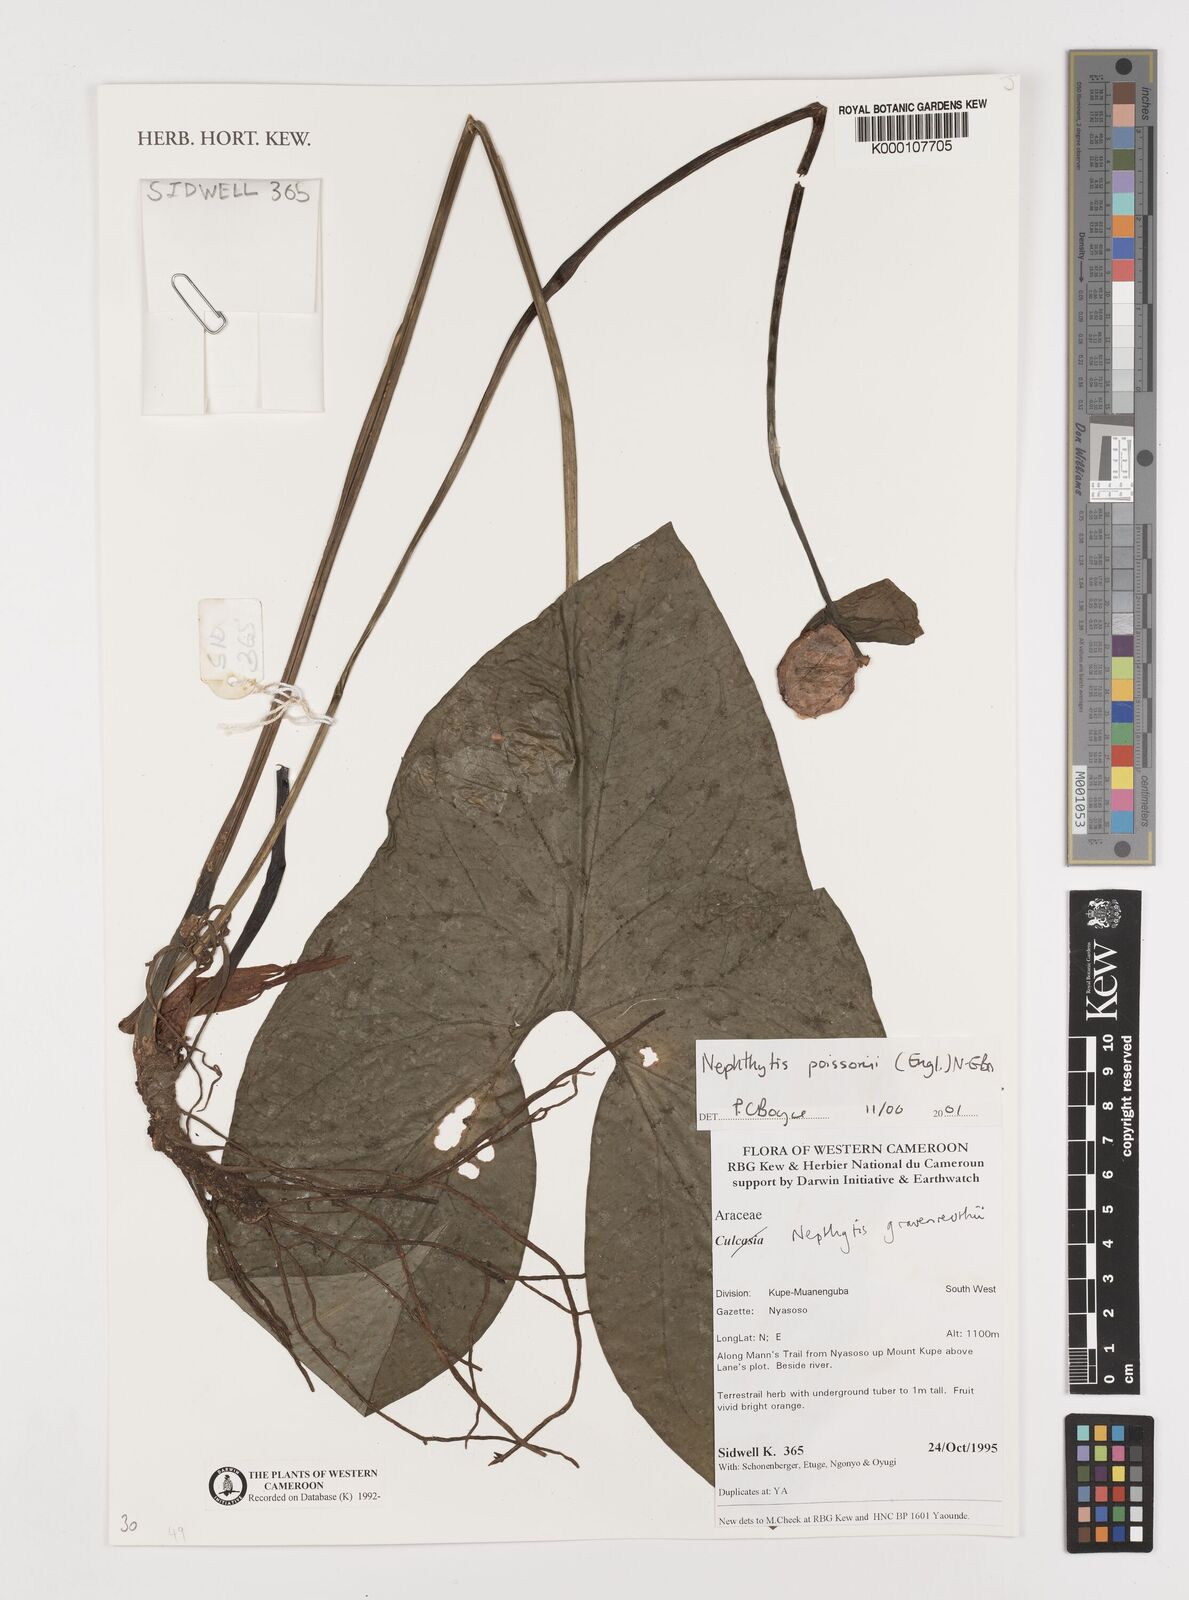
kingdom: Plantae
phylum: Tracheophyta
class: Liliopsida
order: Alismatales
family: Araceae
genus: Nephthytis
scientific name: Nephthytis poissonii
